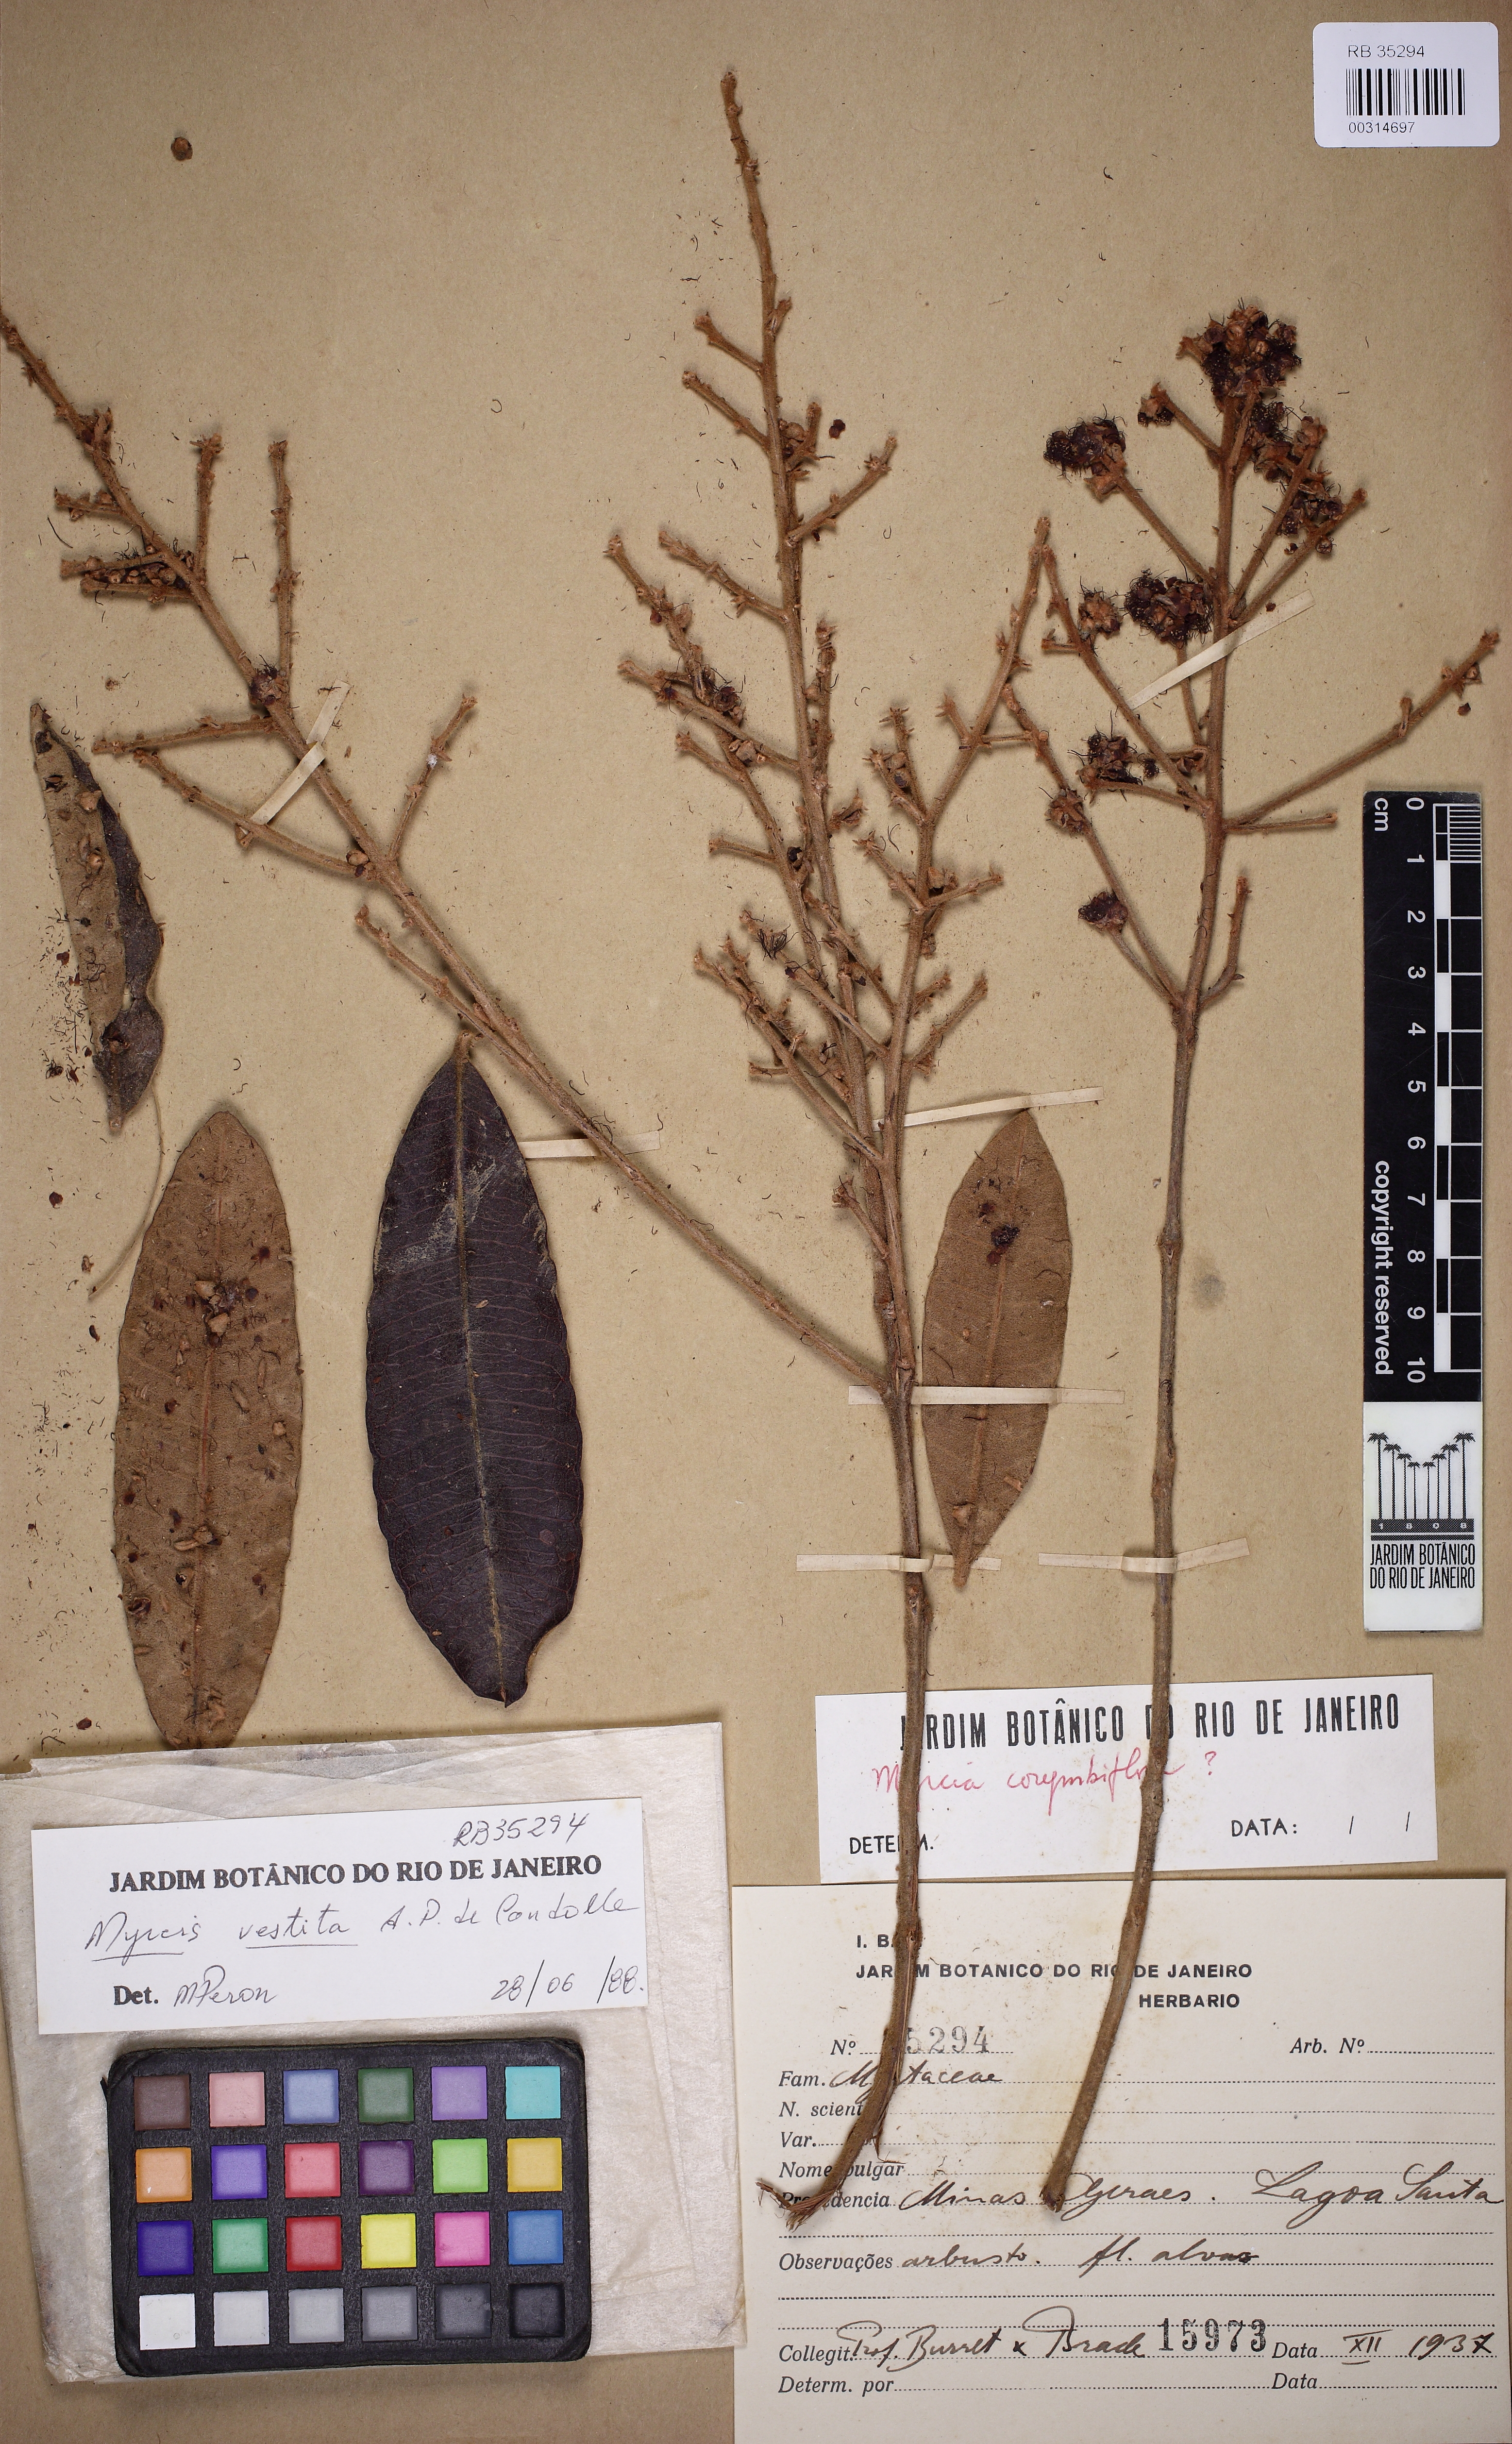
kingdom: Plantae
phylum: Tracheophyta
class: Magnoliopsida
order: Myrtales
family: Myrtaceae
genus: Myrcia
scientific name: Myrcia vestita
